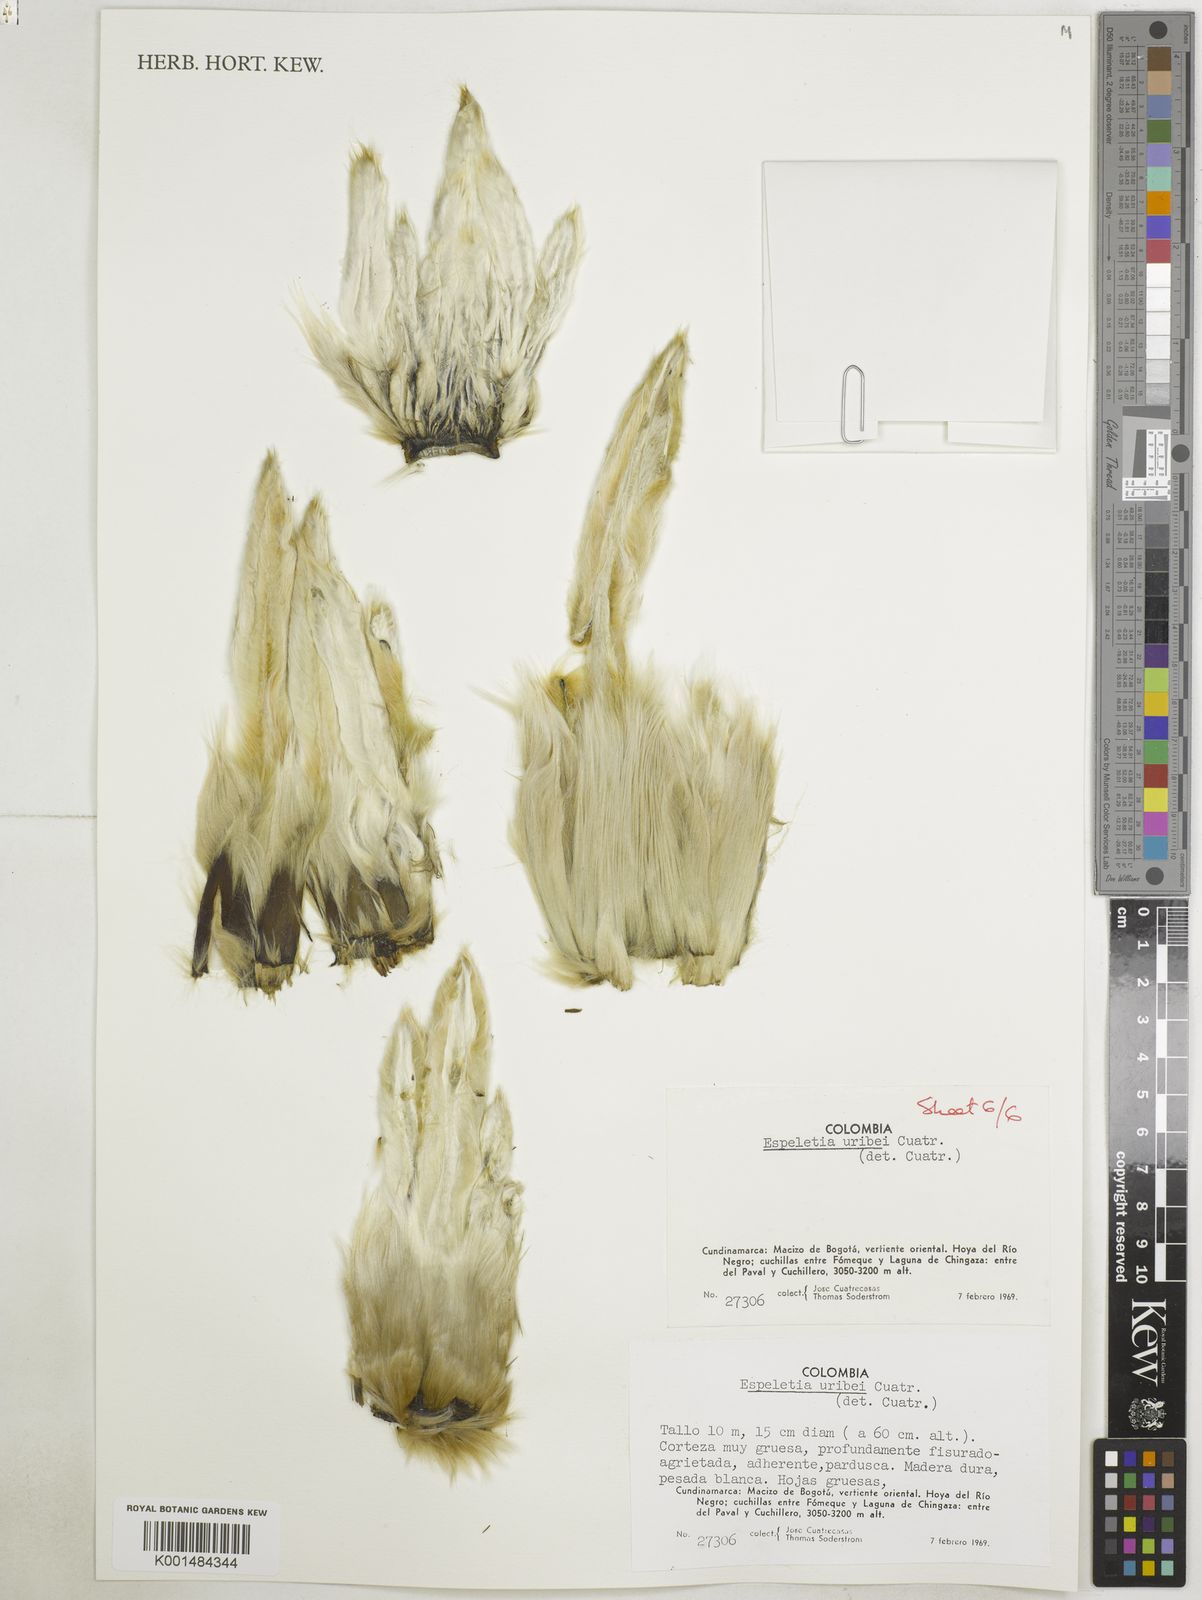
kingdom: Plantae
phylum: Tracheophyta
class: Magnoliopsida
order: Asterales
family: Asteraceae
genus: Espeletia
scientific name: Espeletia uribei
